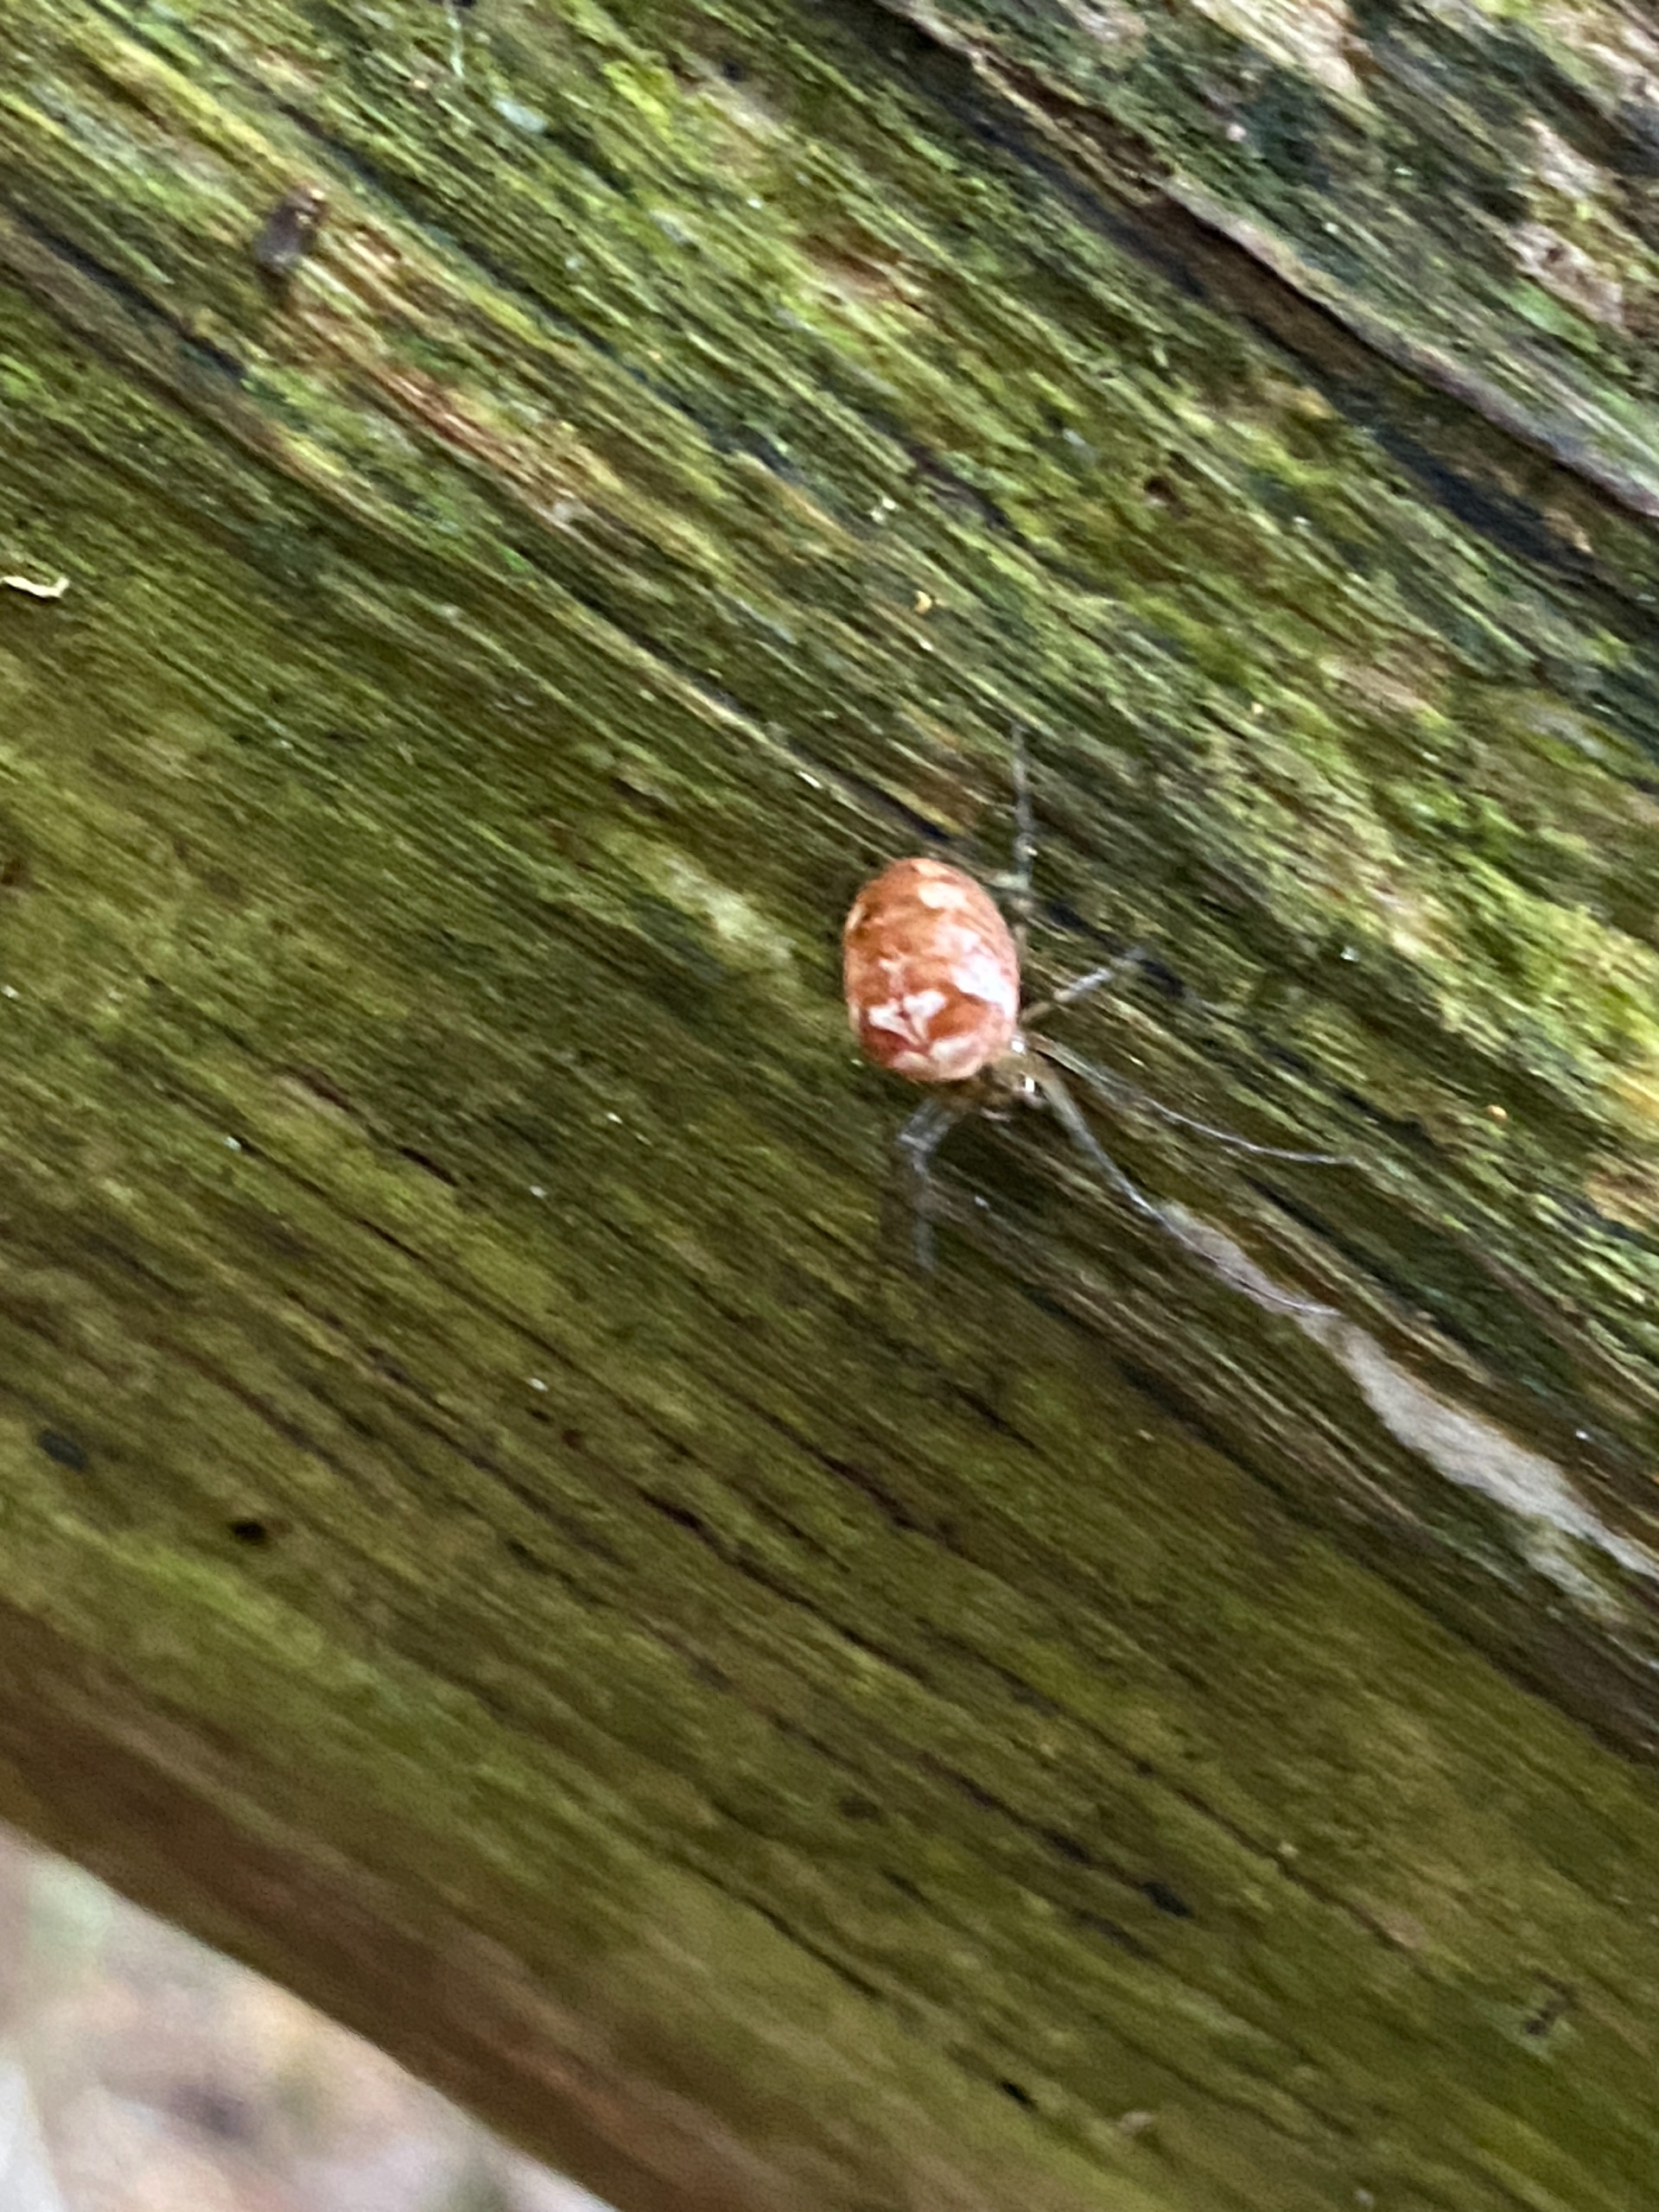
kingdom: Animalia
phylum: Arthropoda
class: Arachnida
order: Araneae
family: Tetragnathidae
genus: Metellina
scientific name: Metellina
